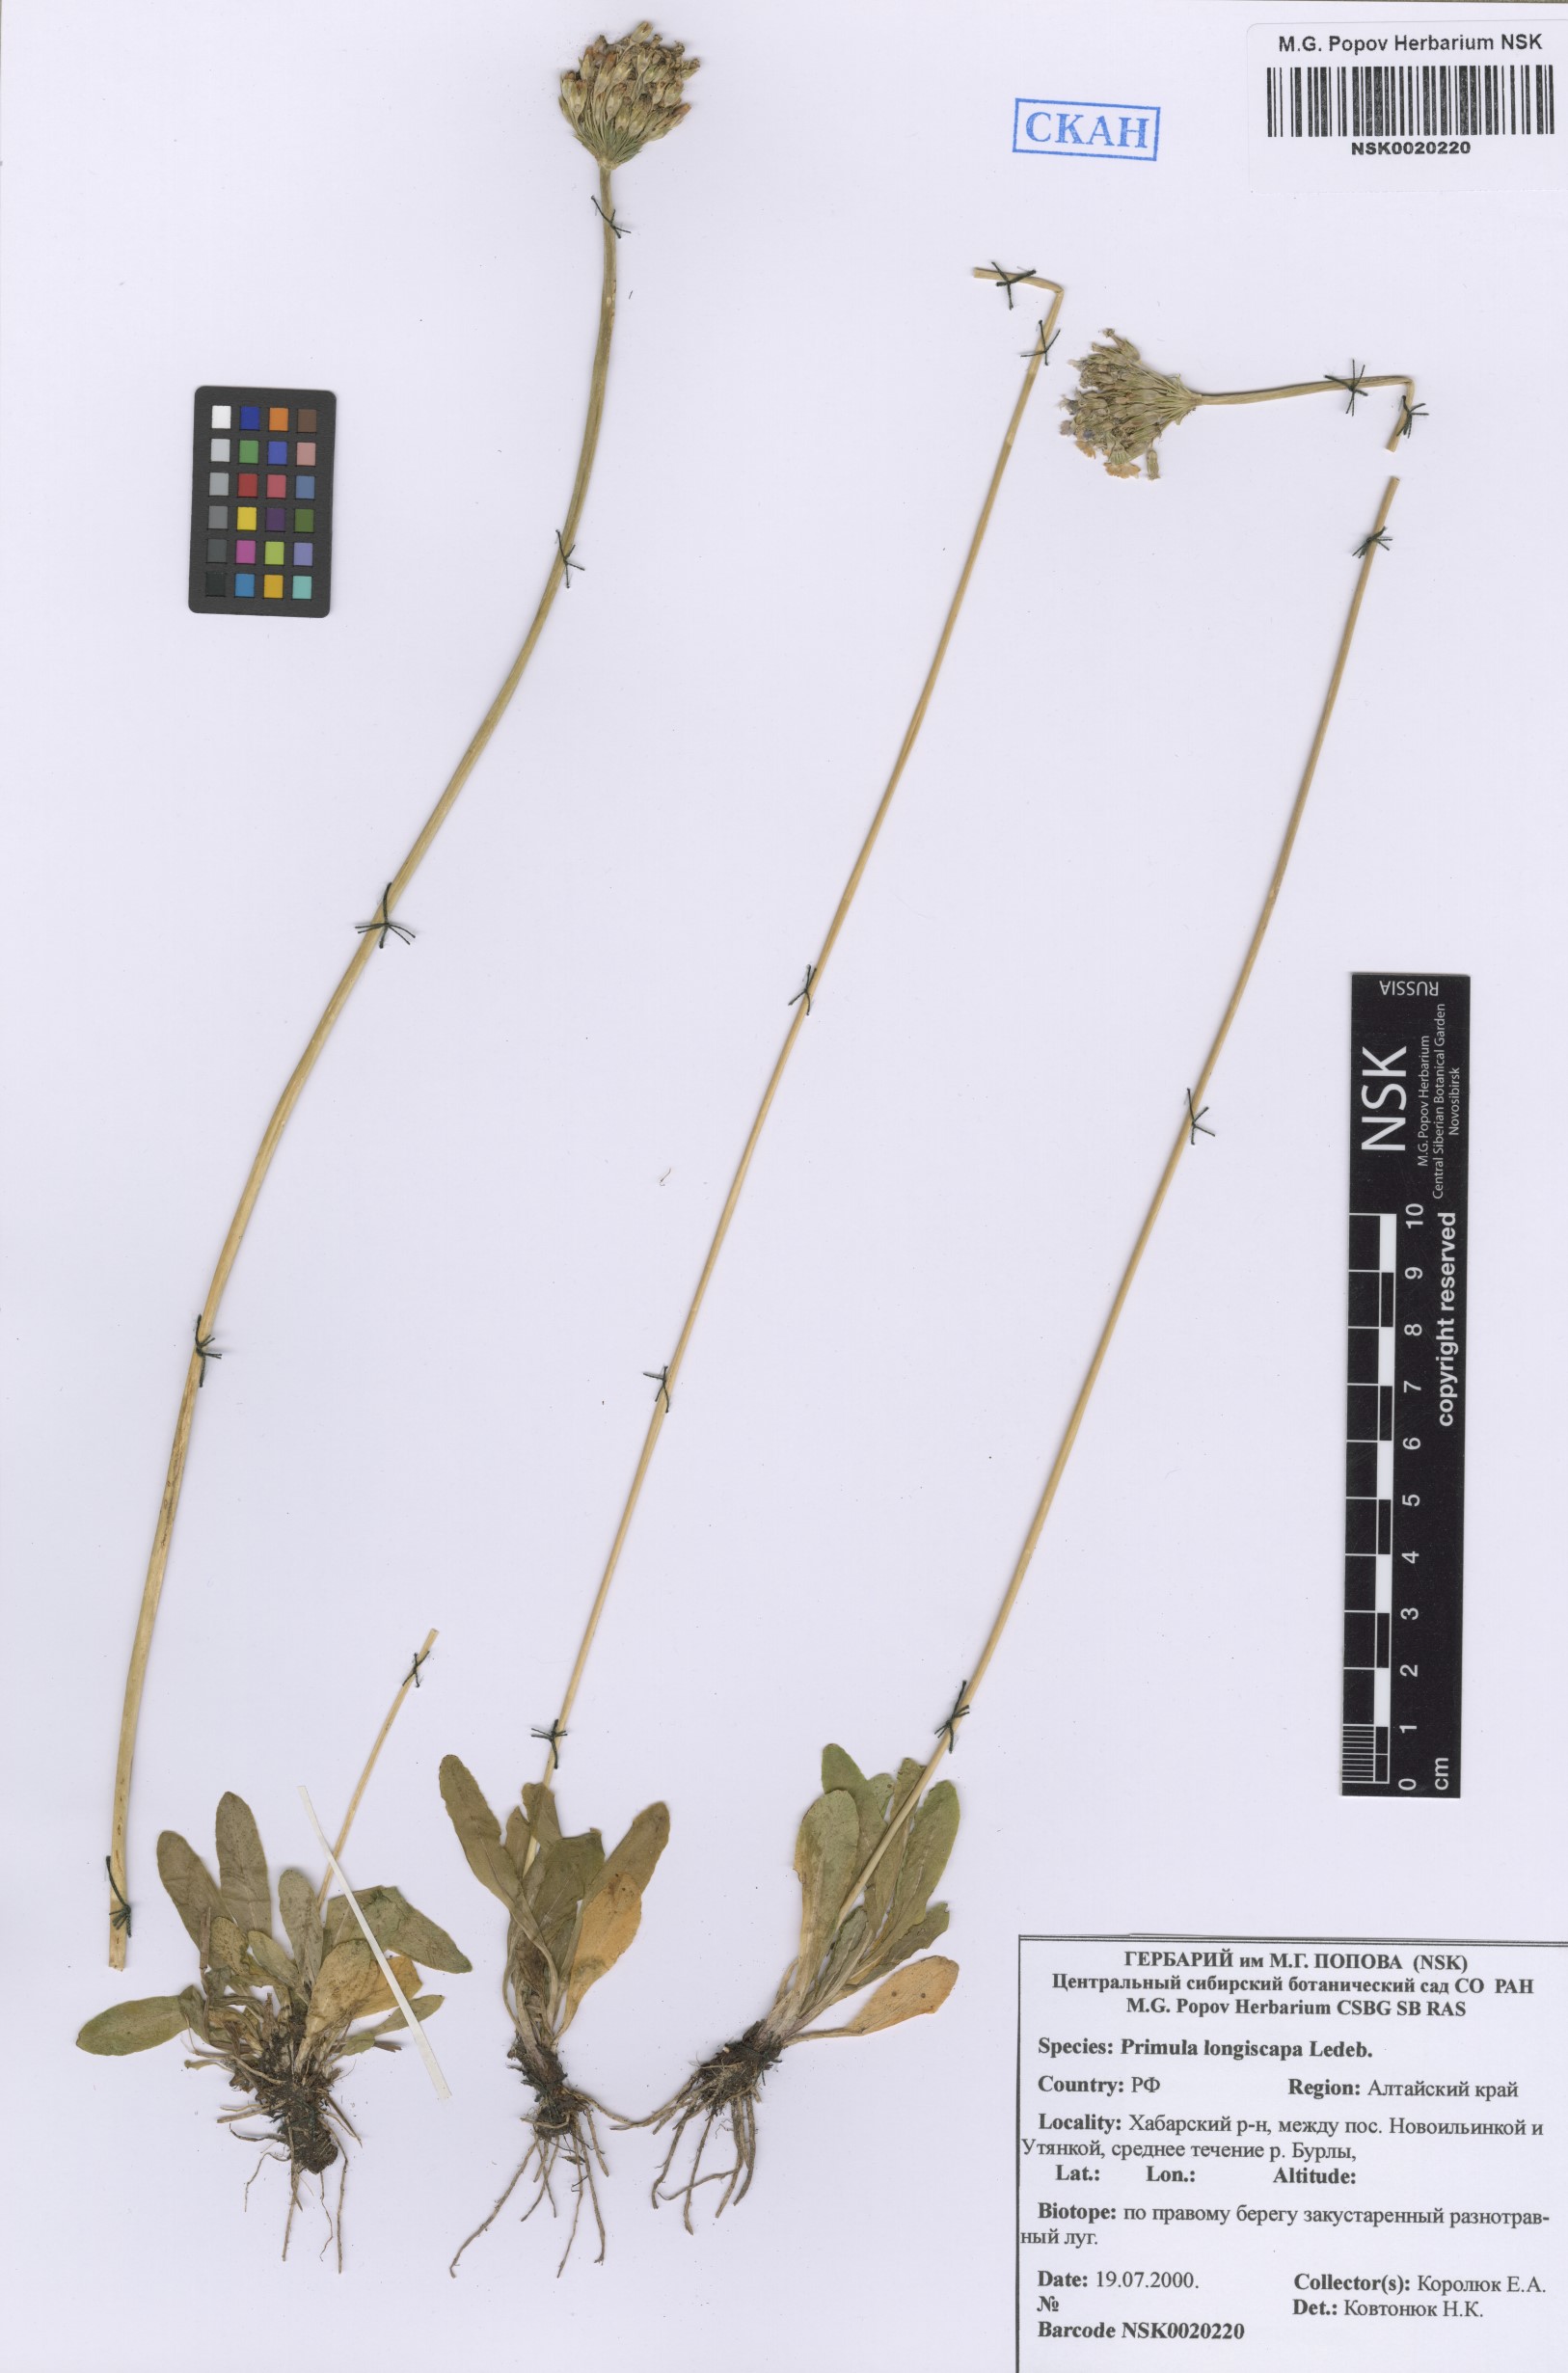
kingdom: Plantae
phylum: Tracheophyta
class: Magnoliopsida
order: Ericales
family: Primulaceae
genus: Primula
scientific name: Primula longiscapa
